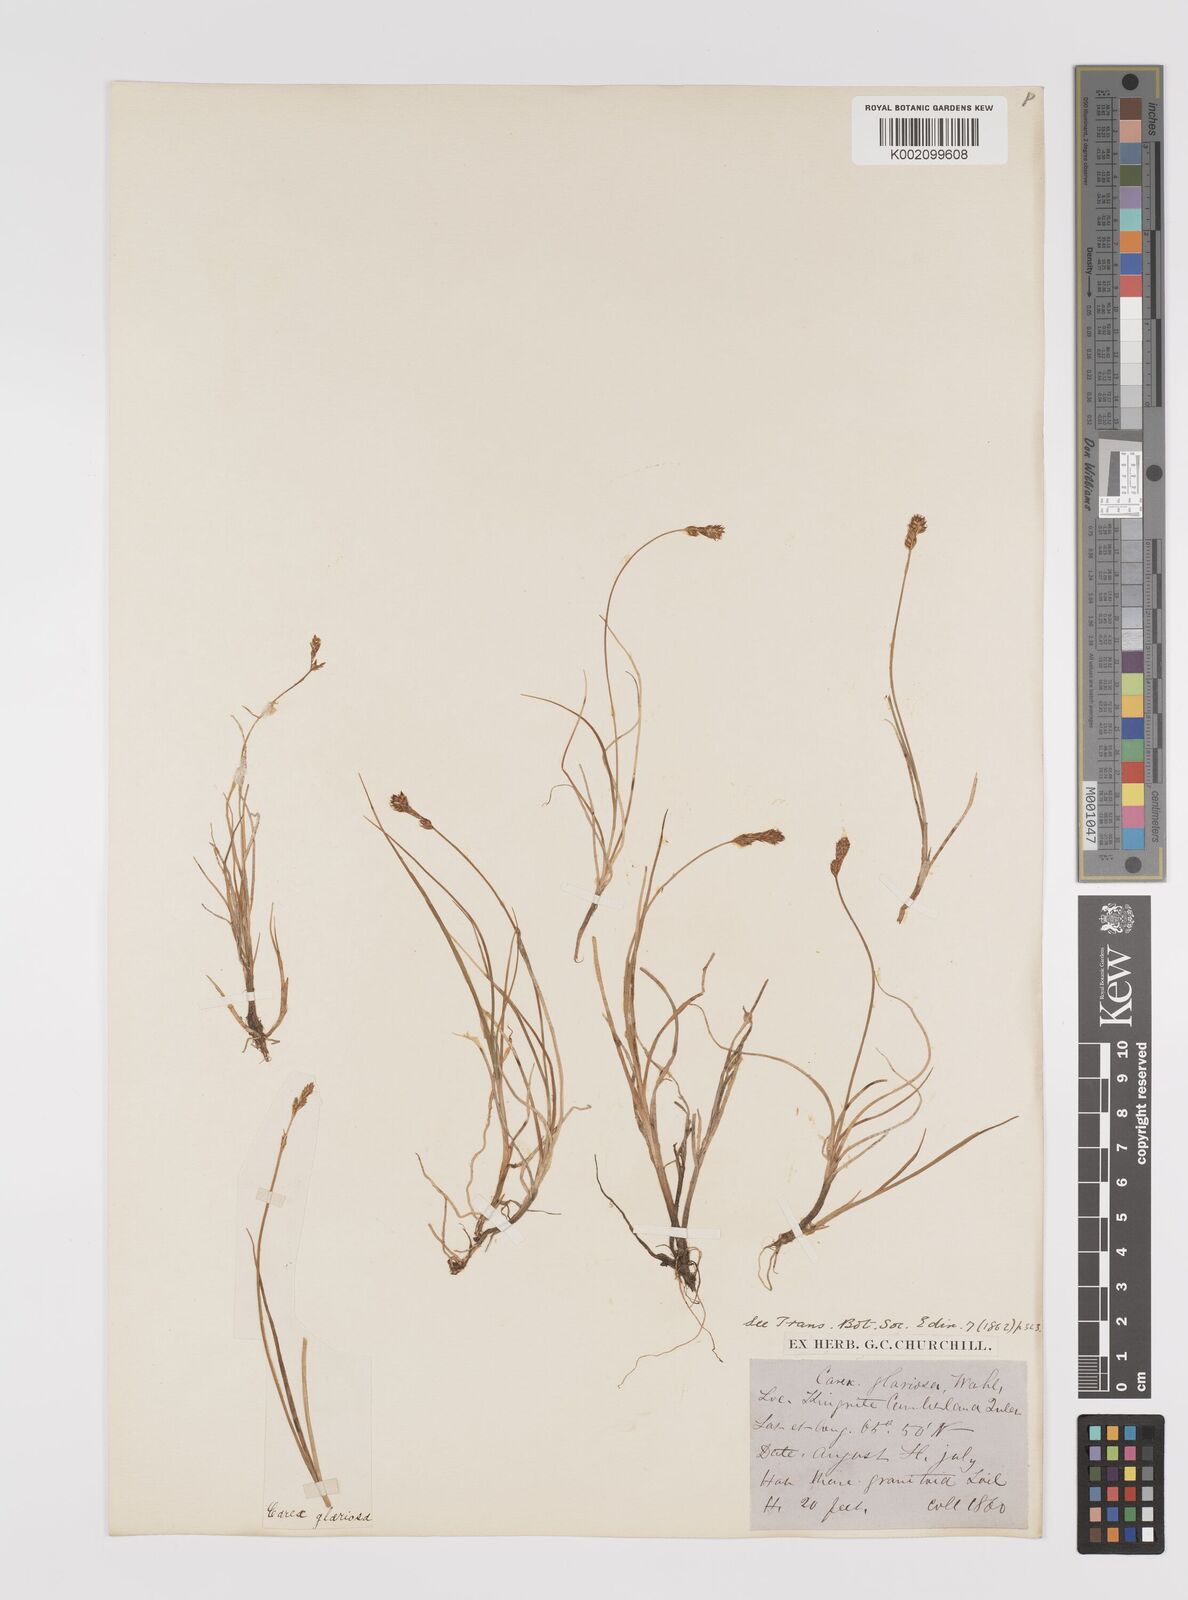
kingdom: Plantae
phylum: Tracheophyta
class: Liliopsida
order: Poales
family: Cyperaceae
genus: Carex
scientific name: Carex glareosa
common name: Clustered sedge
